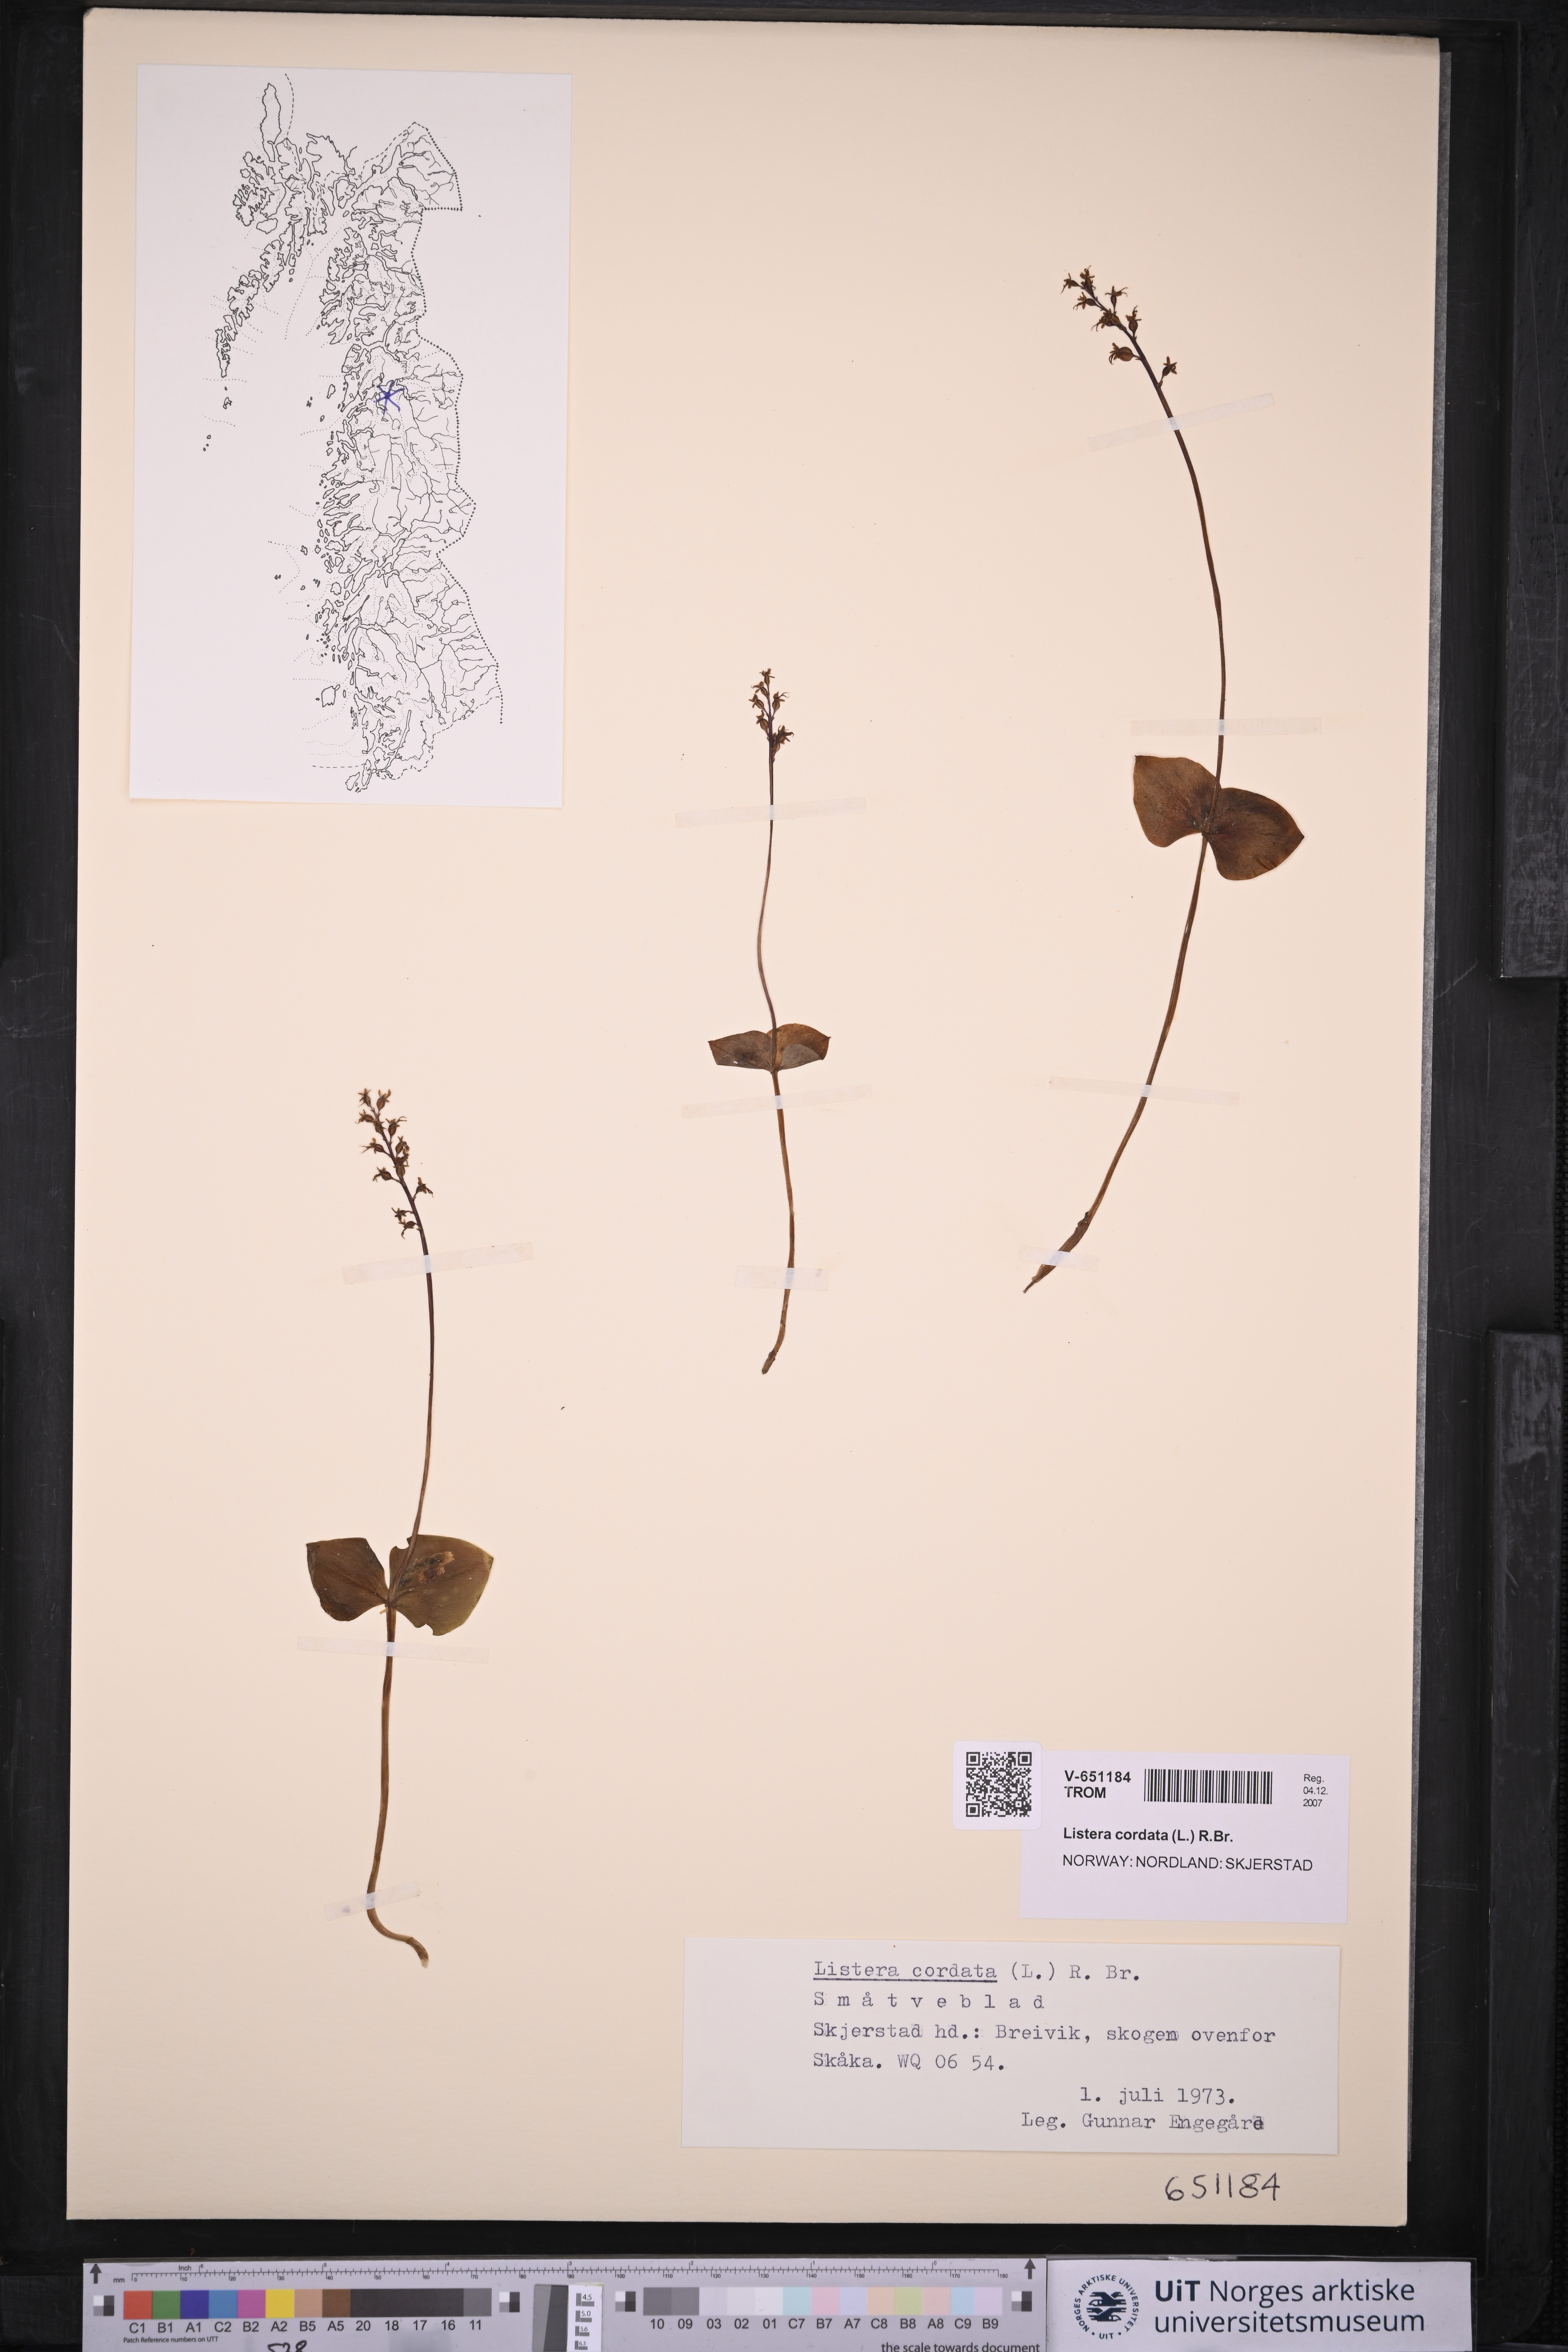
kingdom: Plantae
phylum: Tracheophyta
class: Liliopsida
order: Asparagales
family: Orchidaceae
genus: Neottia
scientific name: Neottia cordata
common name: Lesser twayblade
